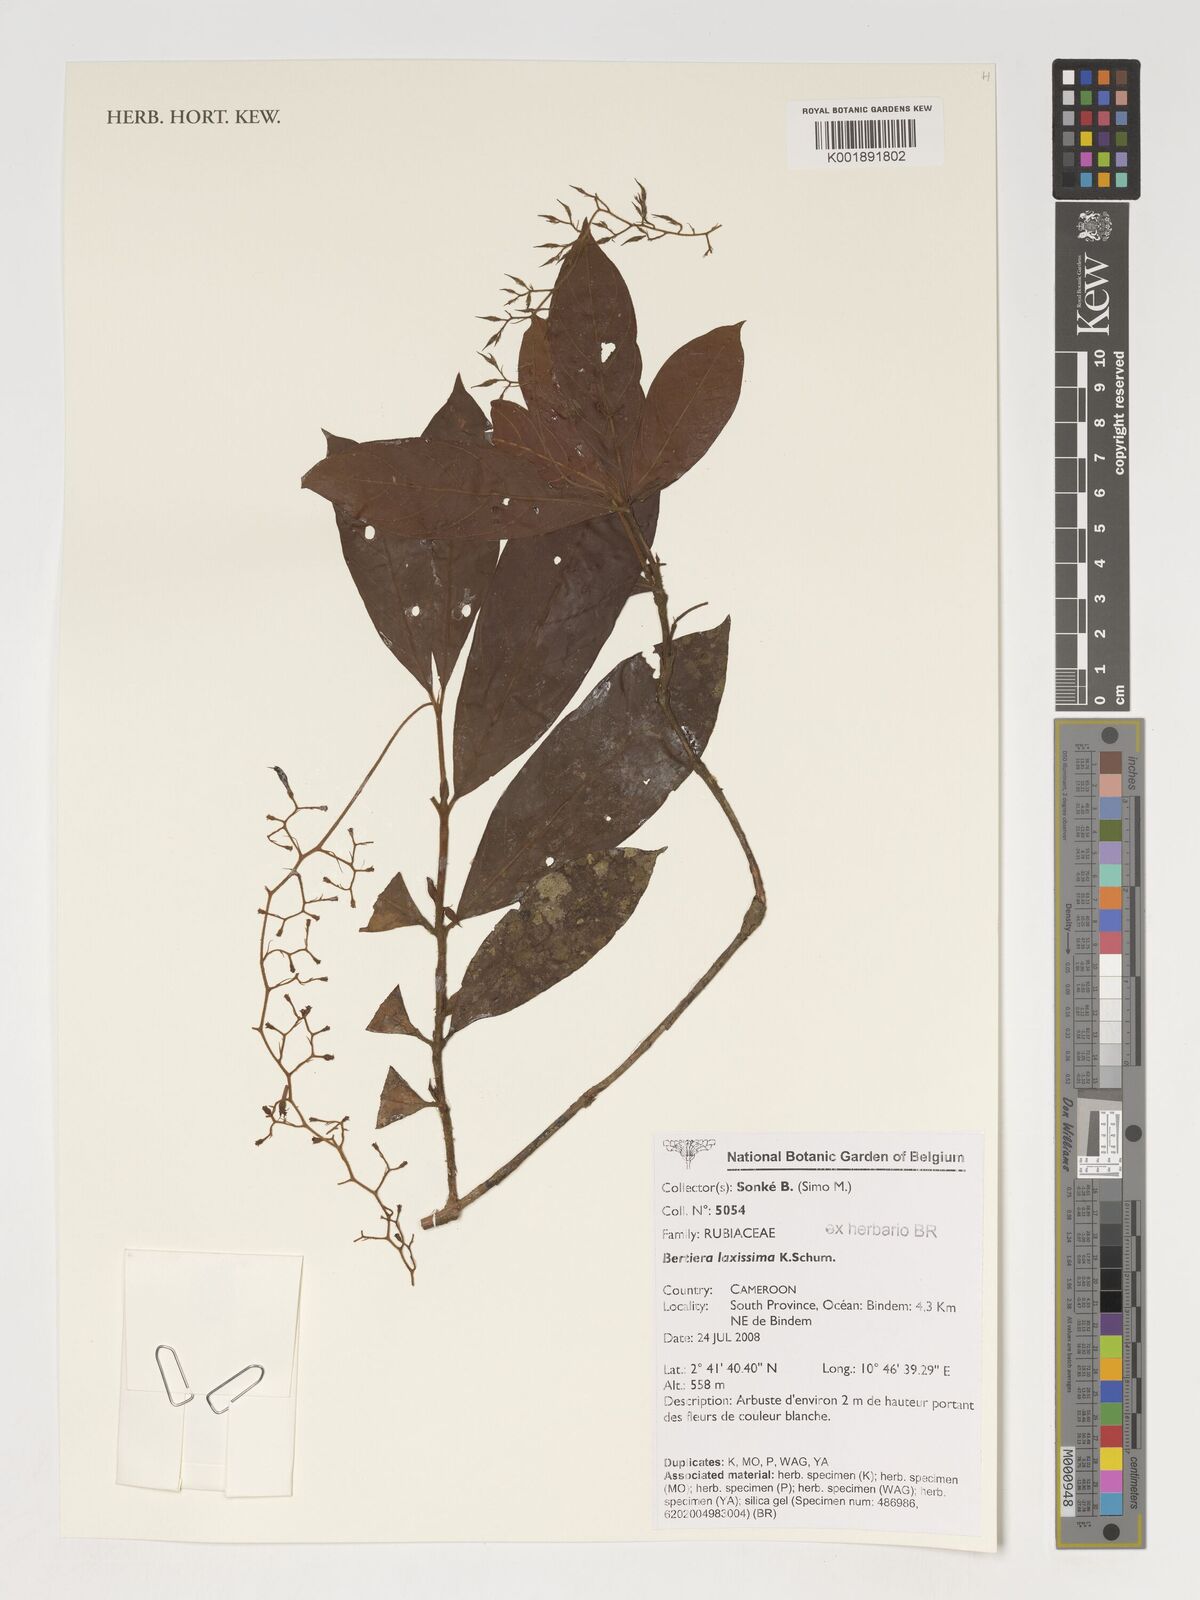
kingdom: Plantae
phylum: Tracheophyta
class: Magnoliopsida
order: Gentianales
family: Rubiaceae
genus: Bertiera
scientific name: Bertiera laxissima
